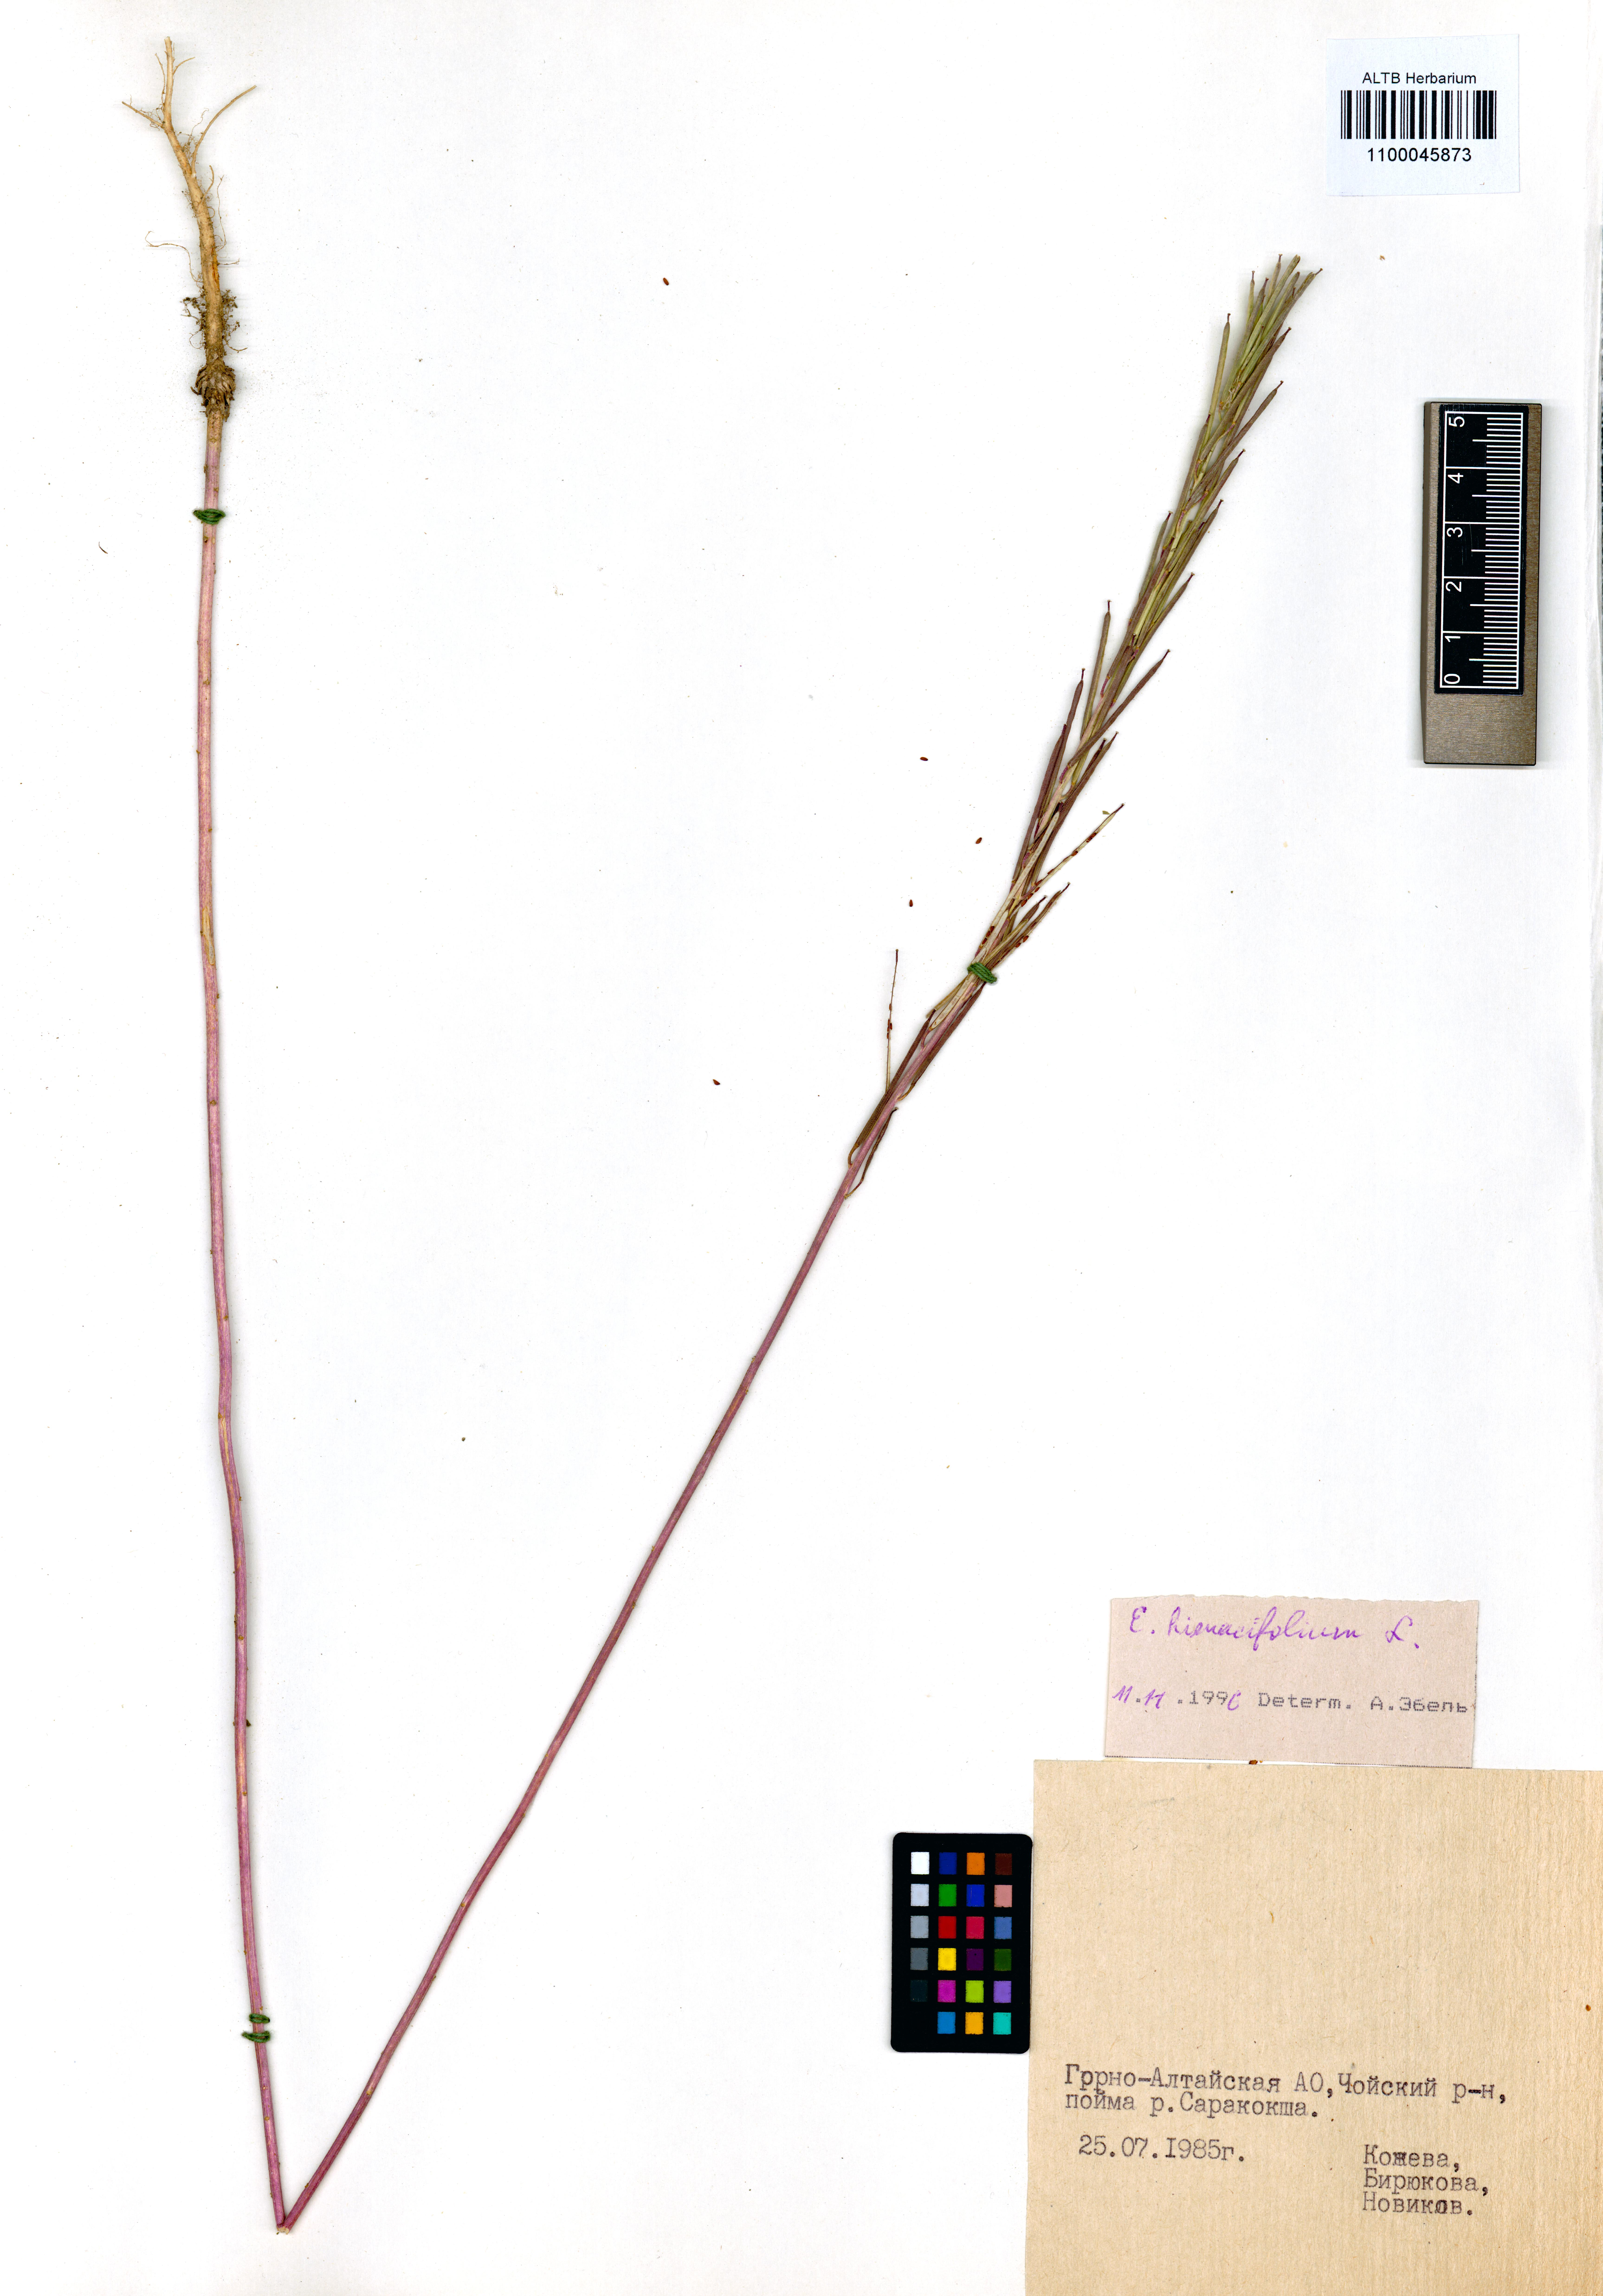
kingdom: Plantae
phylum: Tracheophyta
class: Magnoliopsida
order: Brassicales
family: Brassicaceae
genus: Erysimum
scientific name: Erysimum hieraciifolium
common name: European wallflower
